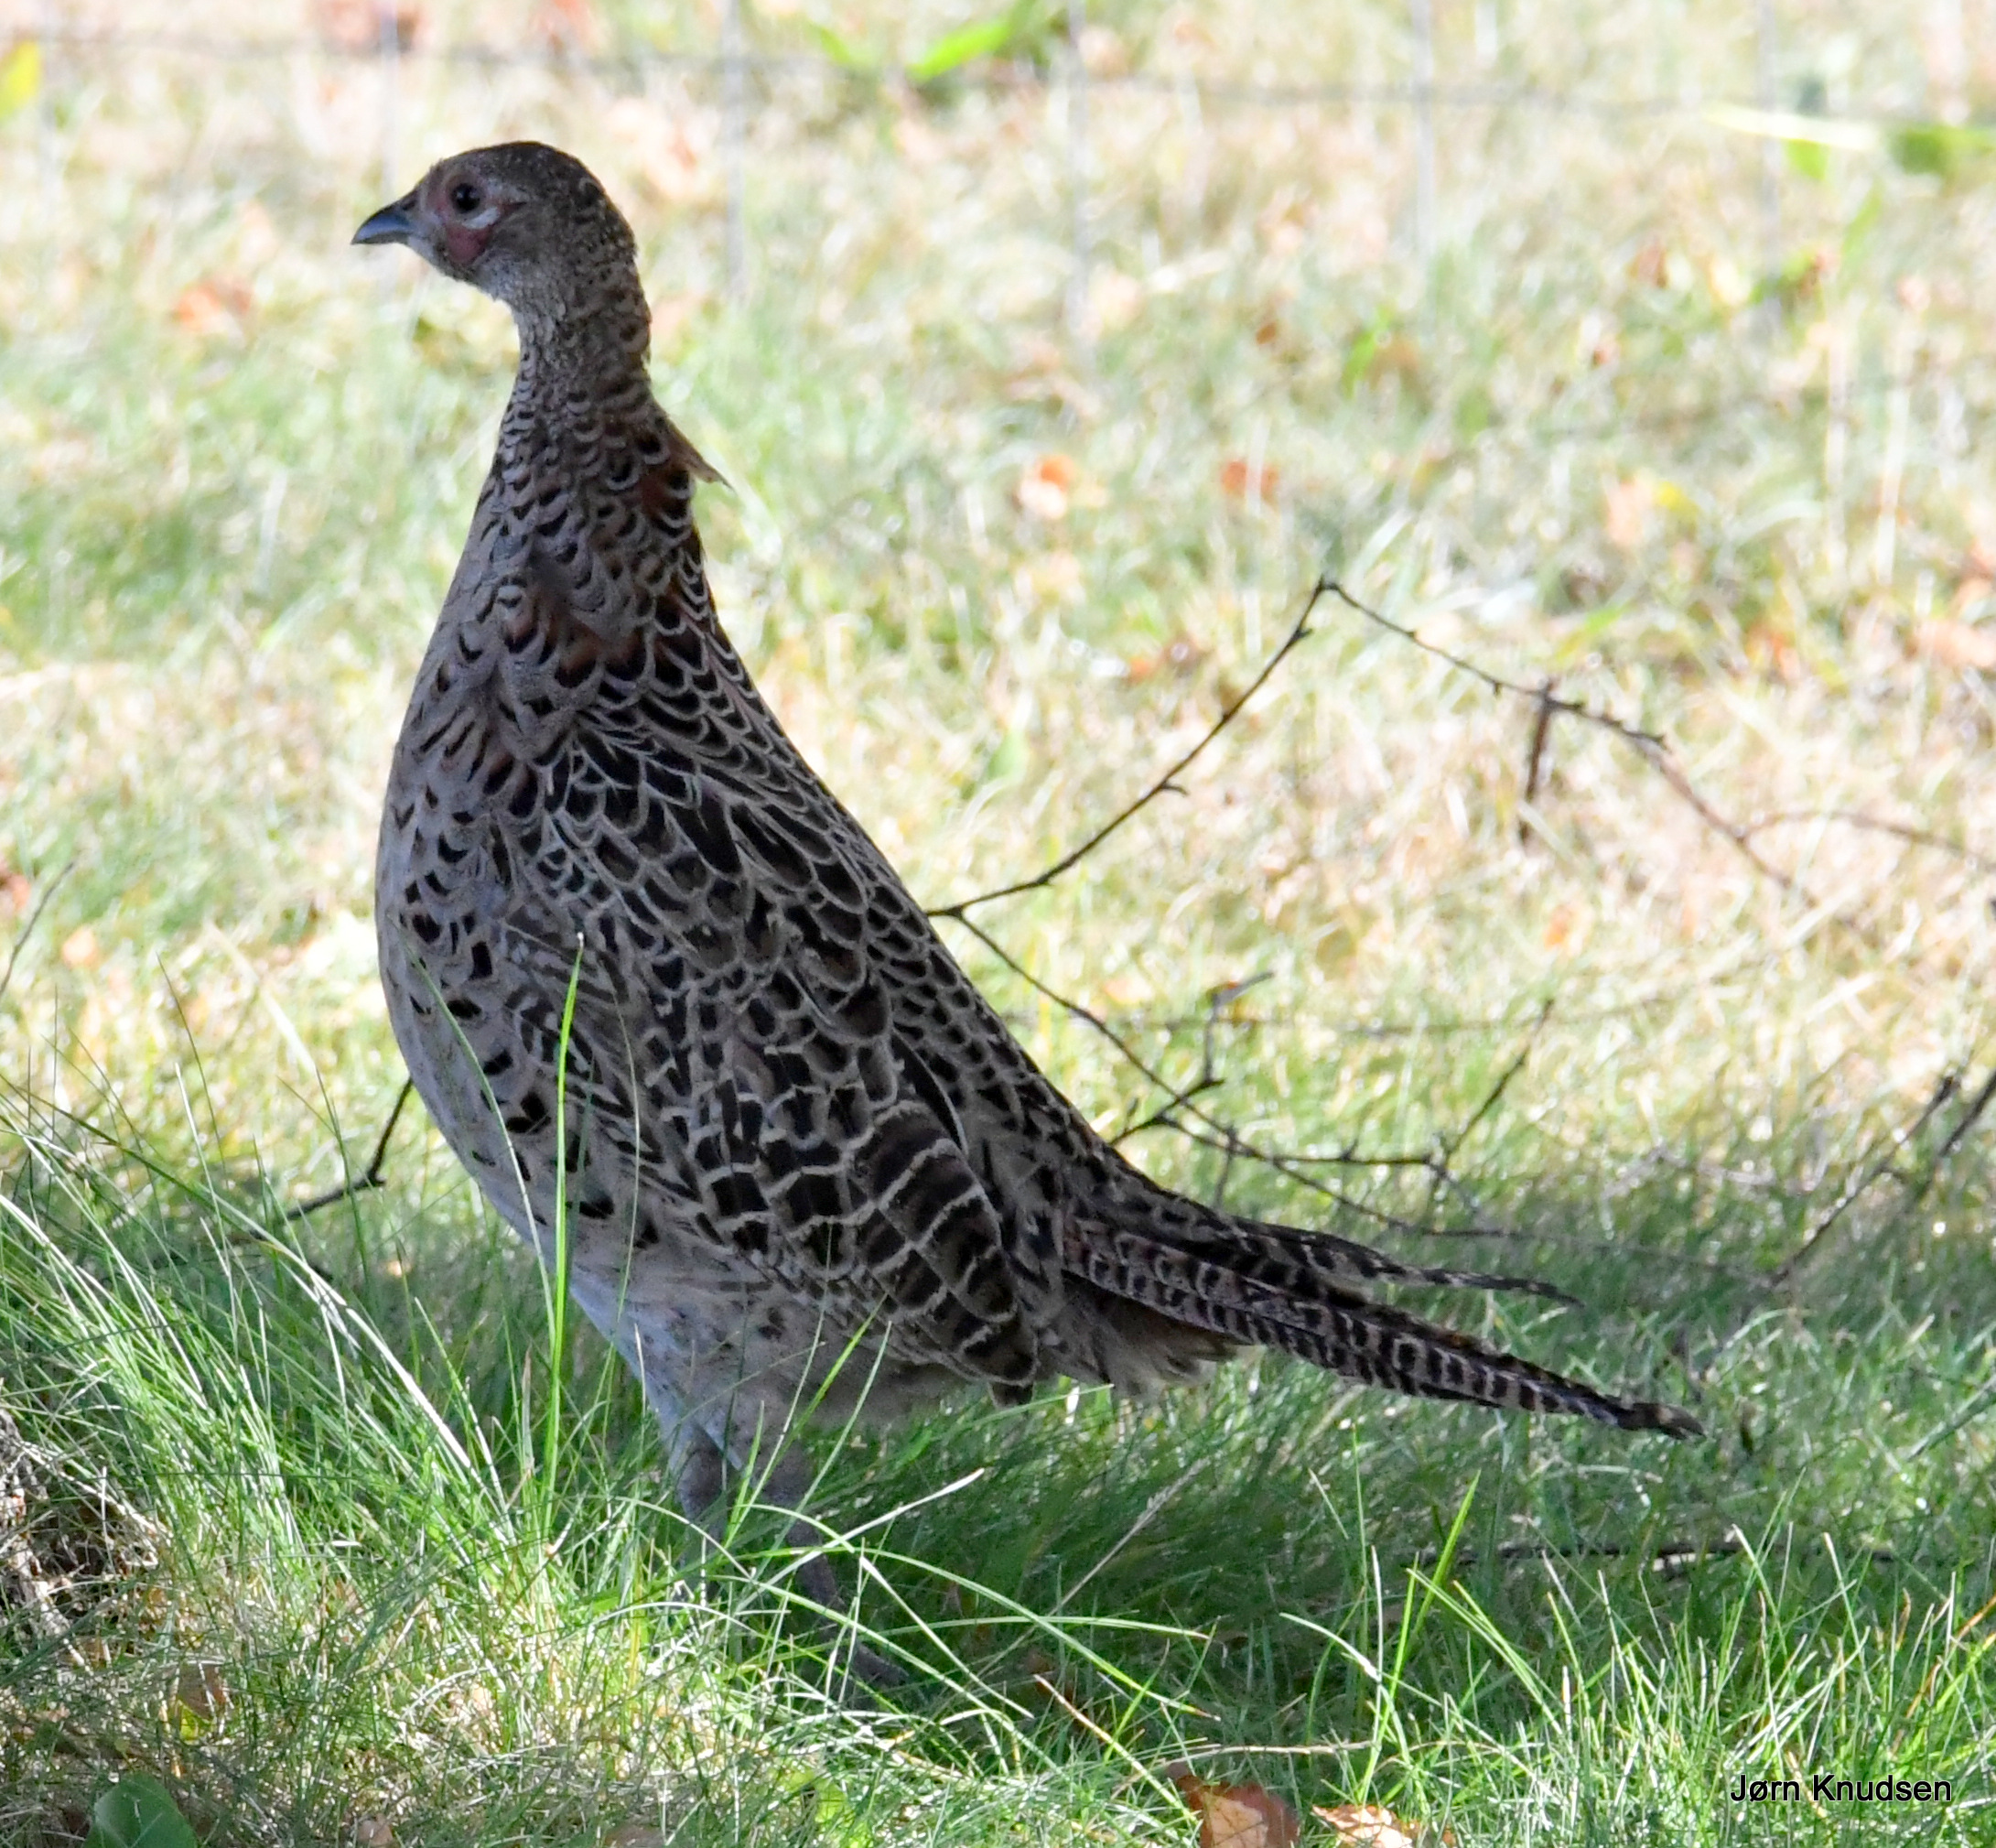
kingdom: Animalia
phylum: Chordata
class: Aves
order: Galliformes
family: Phasianidae
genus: Phasianus
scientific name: Phasianus colchicus
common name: Fasan
